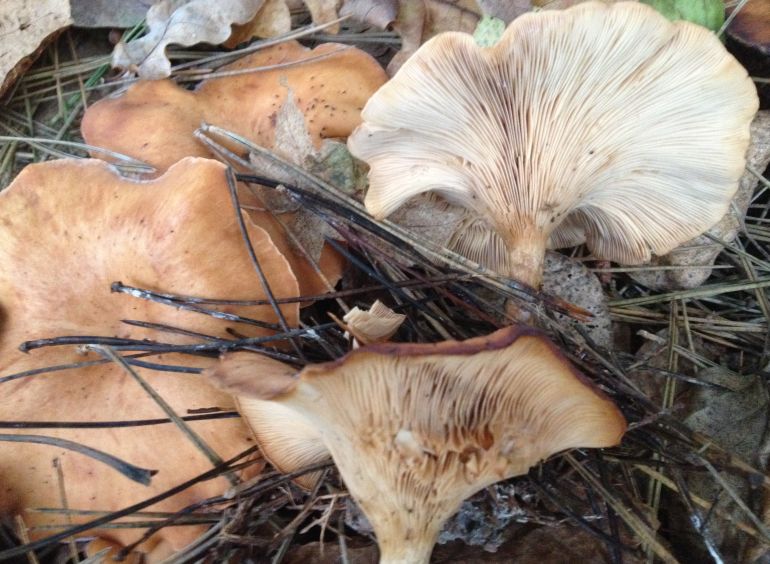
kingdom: Fungi
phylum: Basidiomycota
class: Agaricomycetes
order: Agaricales
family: Tricholomataceae
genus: Paralepista
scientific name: Paralepista flaccida
